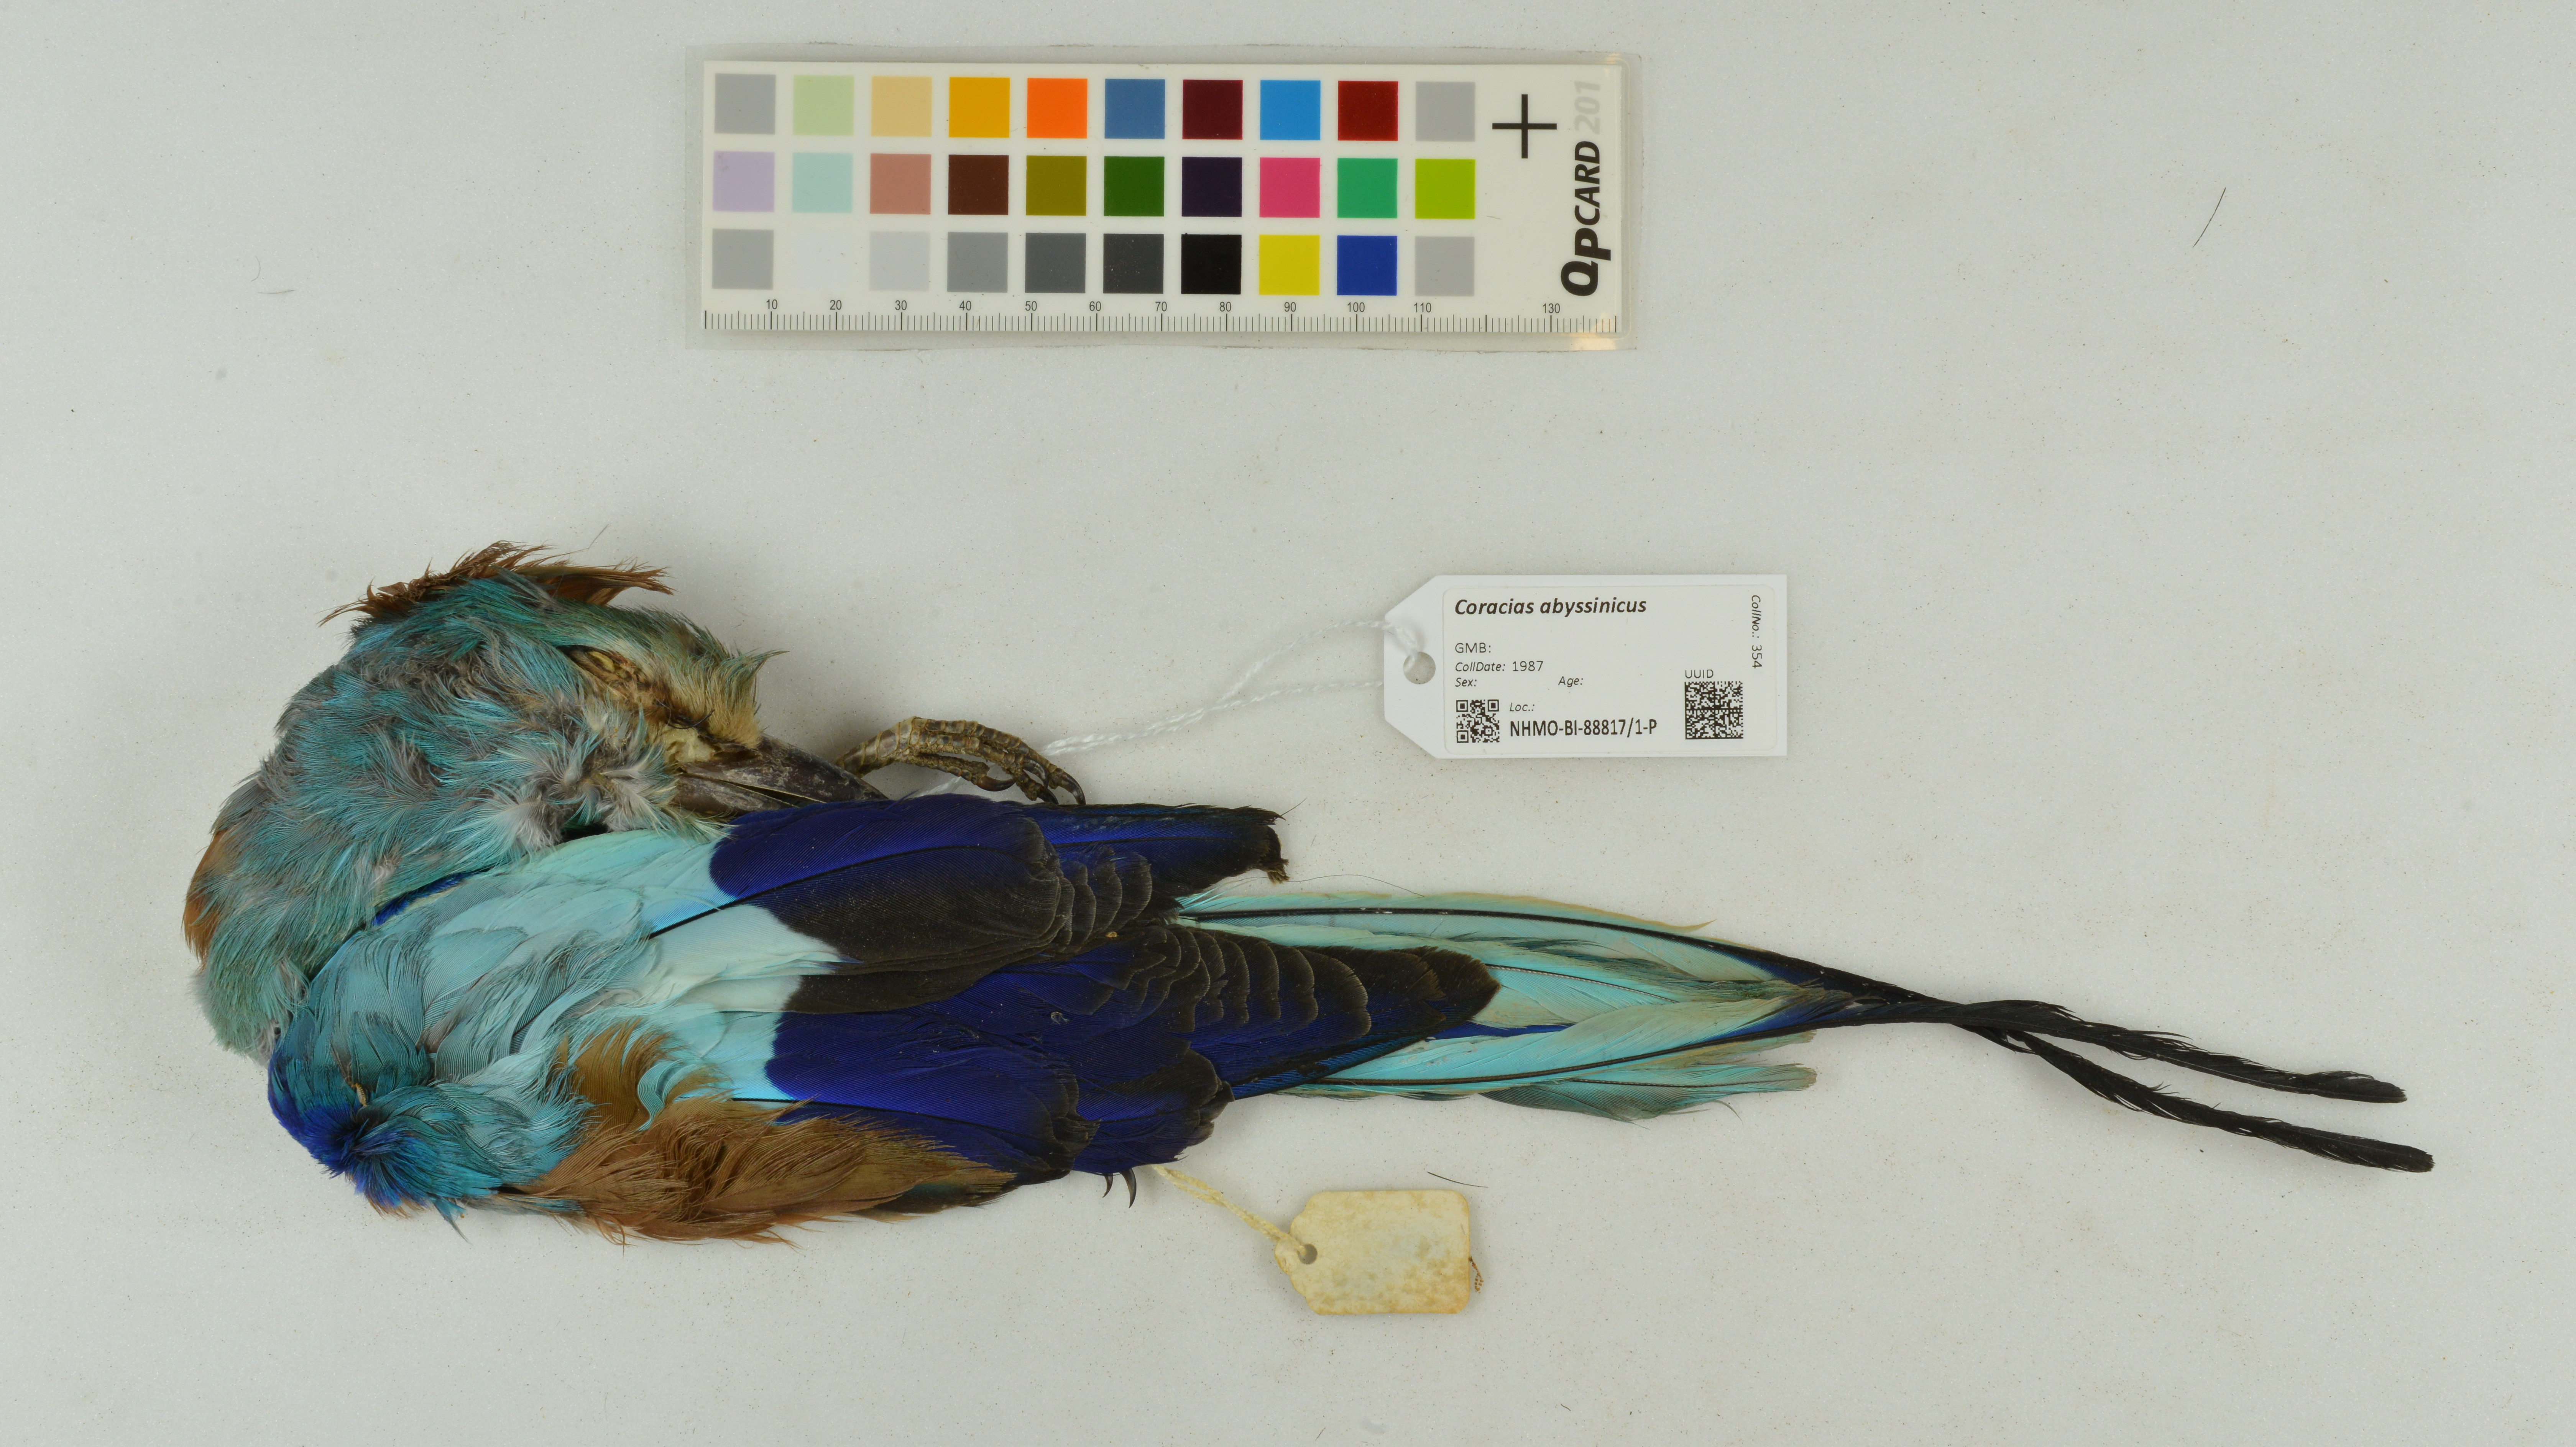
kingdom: Animalia
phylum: Chordata
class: Aves
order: Coraciiformes
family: Coraciidae
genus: Coracias
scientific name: Coracias abyssinicus
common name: Abyssinian roller
